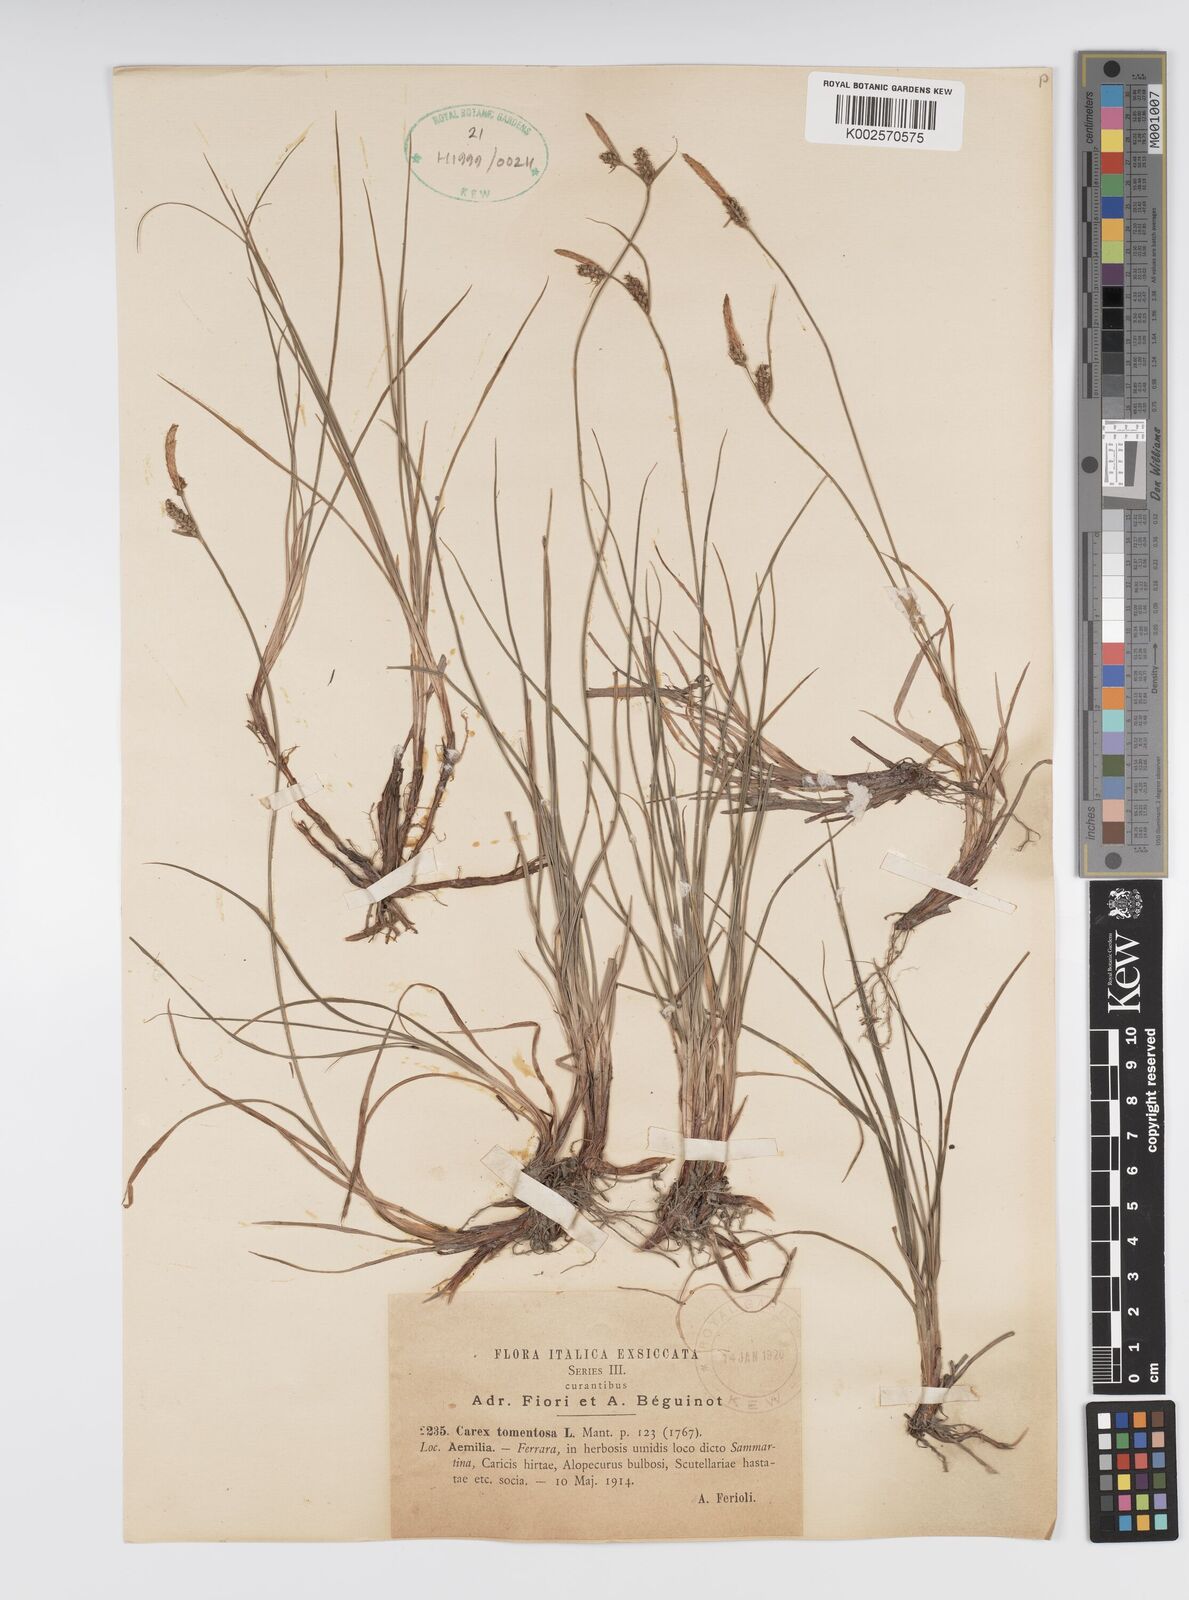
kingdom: Plantae
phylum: Tracheophyta
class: Liliopsida
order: Poales
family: Cyperaceae
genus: Carex
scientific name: Carex montana
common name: Soft-leaved sedge
